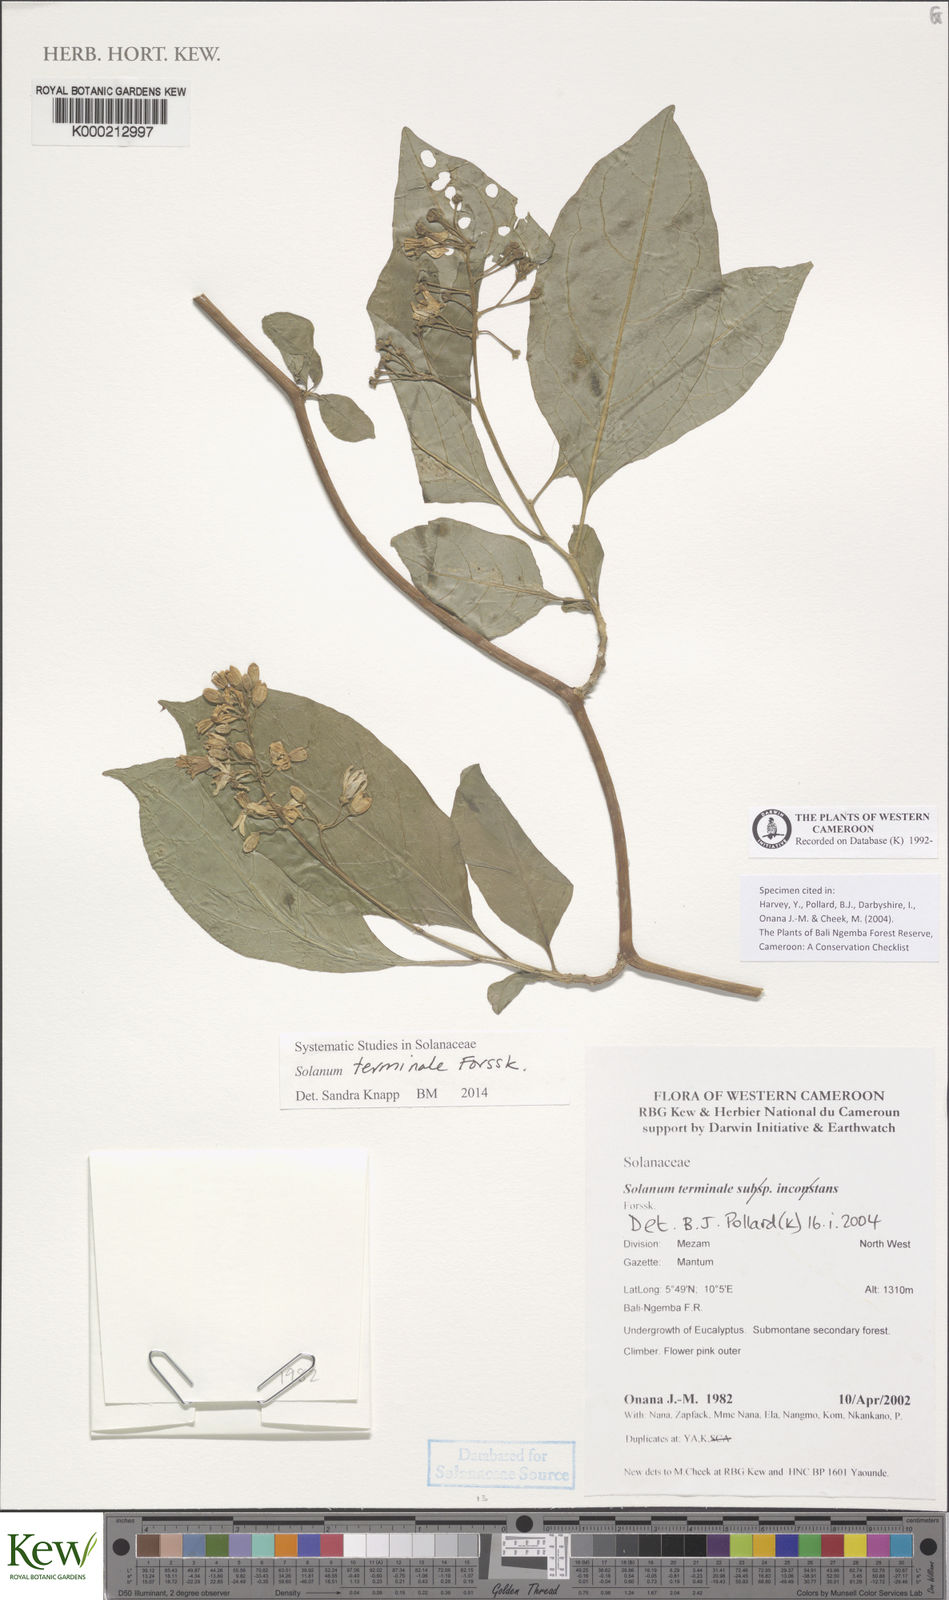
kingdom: Plantae
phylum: Tracheophyta
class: Magnoliopsida
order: Solanales
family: Solanaceae
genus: Solanum
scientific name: Solanum terminale
